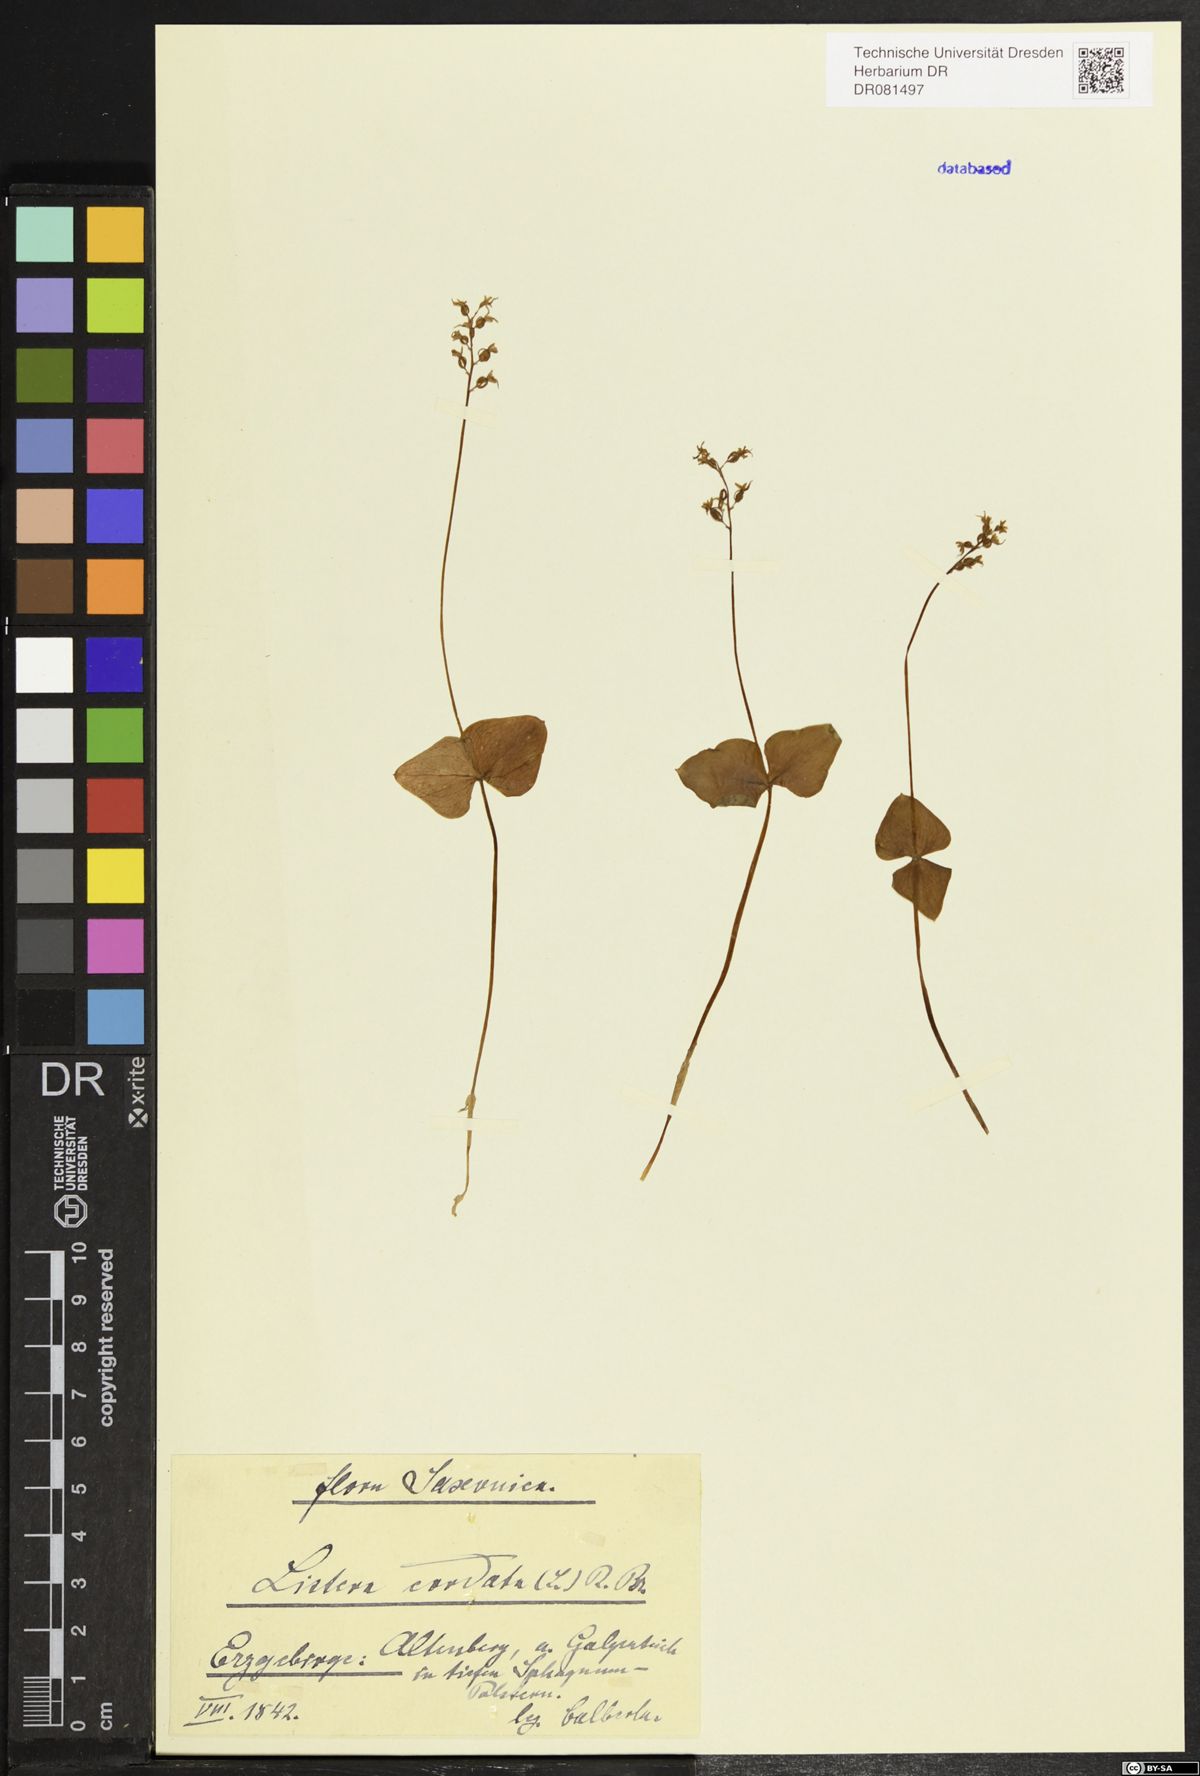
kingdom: Plantae
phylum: Tracheophyta
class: Liliopsida
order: Asparagales
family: Orchidaceae
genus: Neottia
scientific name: Neottia cordata
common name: Lesser twayblade
